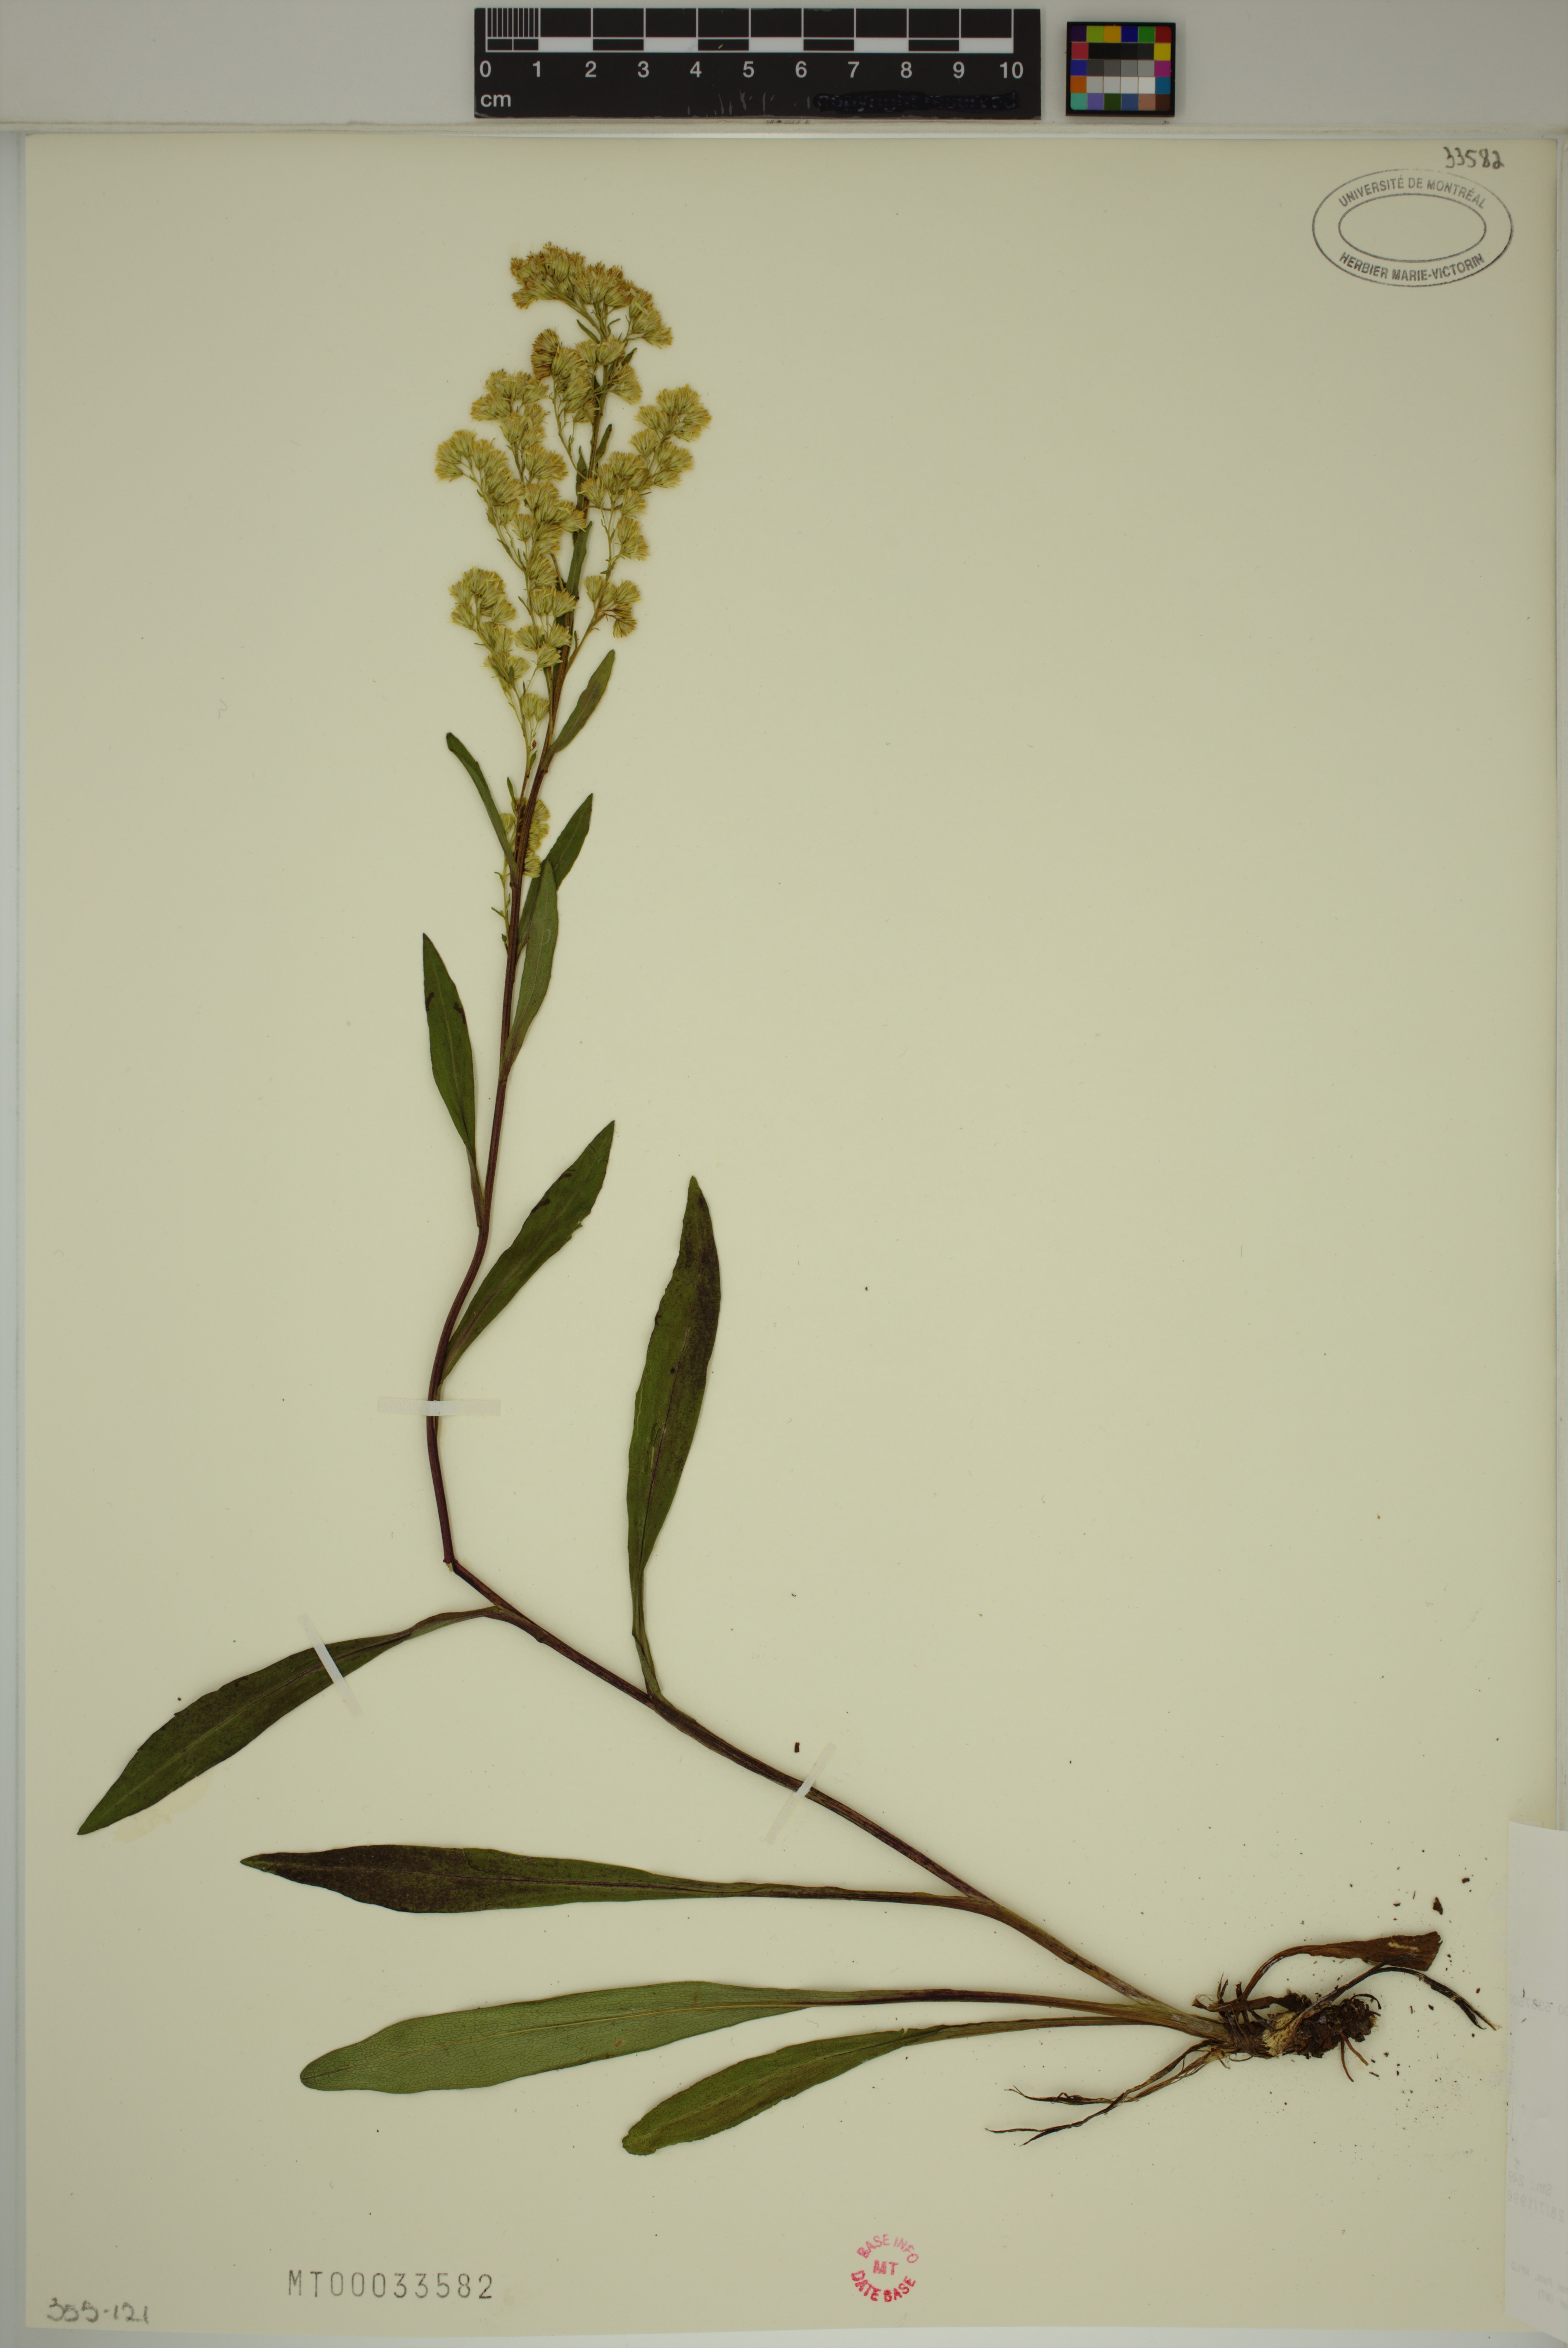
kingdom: Plantae
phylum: Tracheophyta
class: Magnoliopsida
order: Asterales
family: Asteraceae
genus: Solidago
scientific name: Solidago uliginosa
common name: Bog goldenrod
